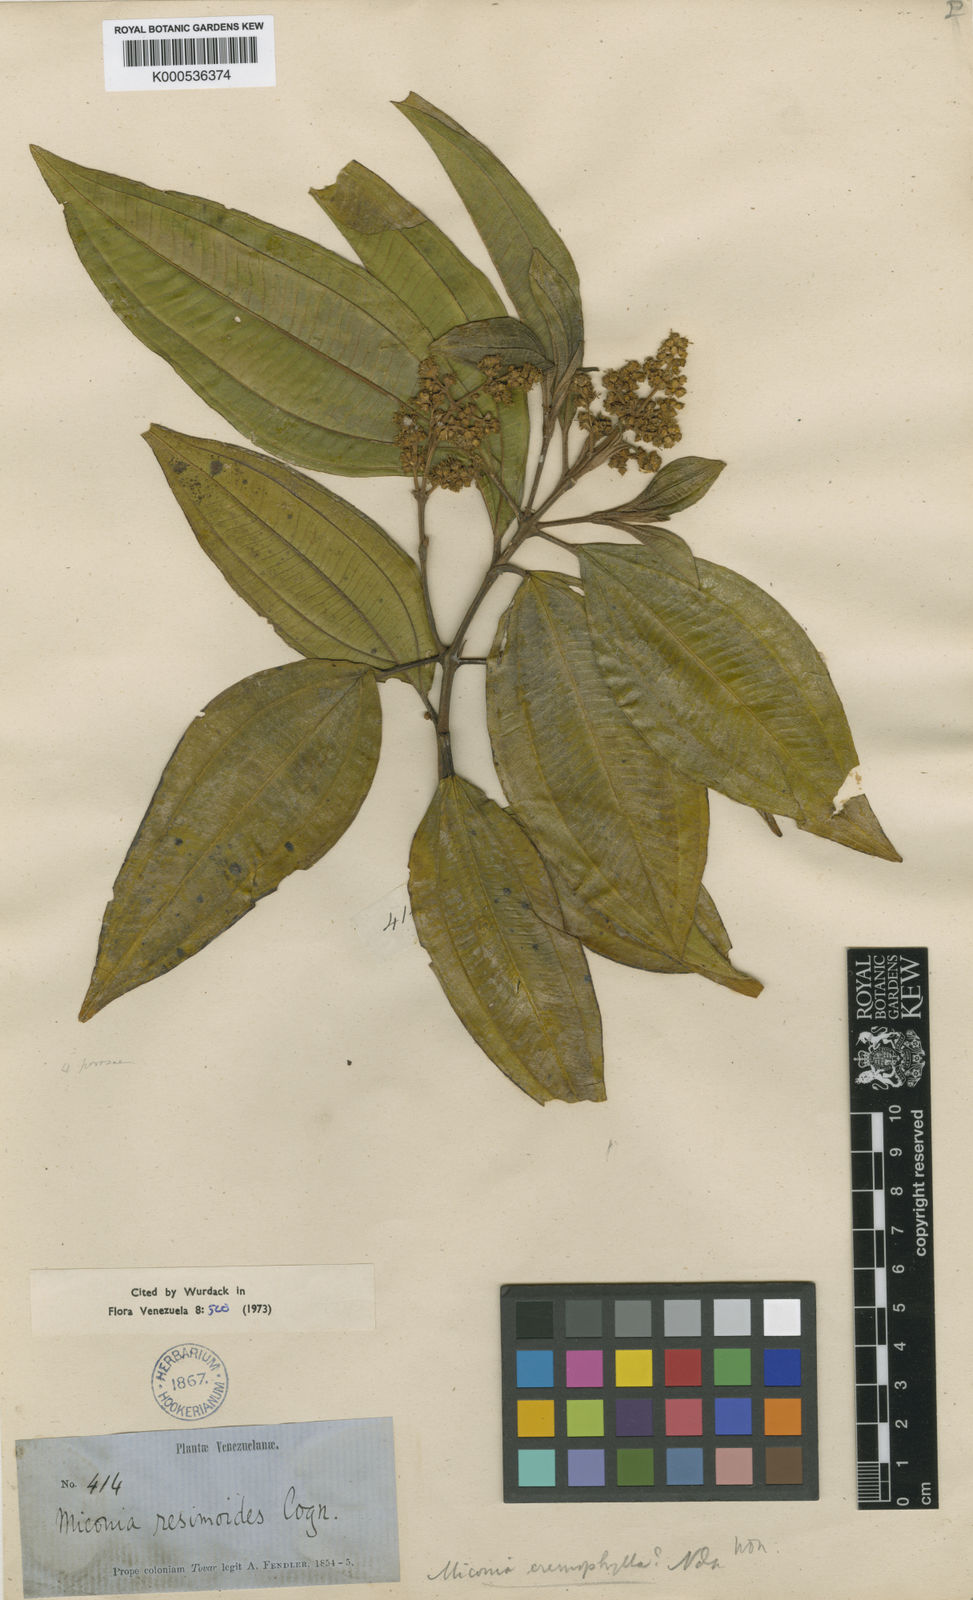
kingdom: Plantae
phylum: Tracheophyta
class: Magnoliopsida
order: Myrtales
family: Melastomataceae
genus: Miconia
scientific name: Miconia resimoides
